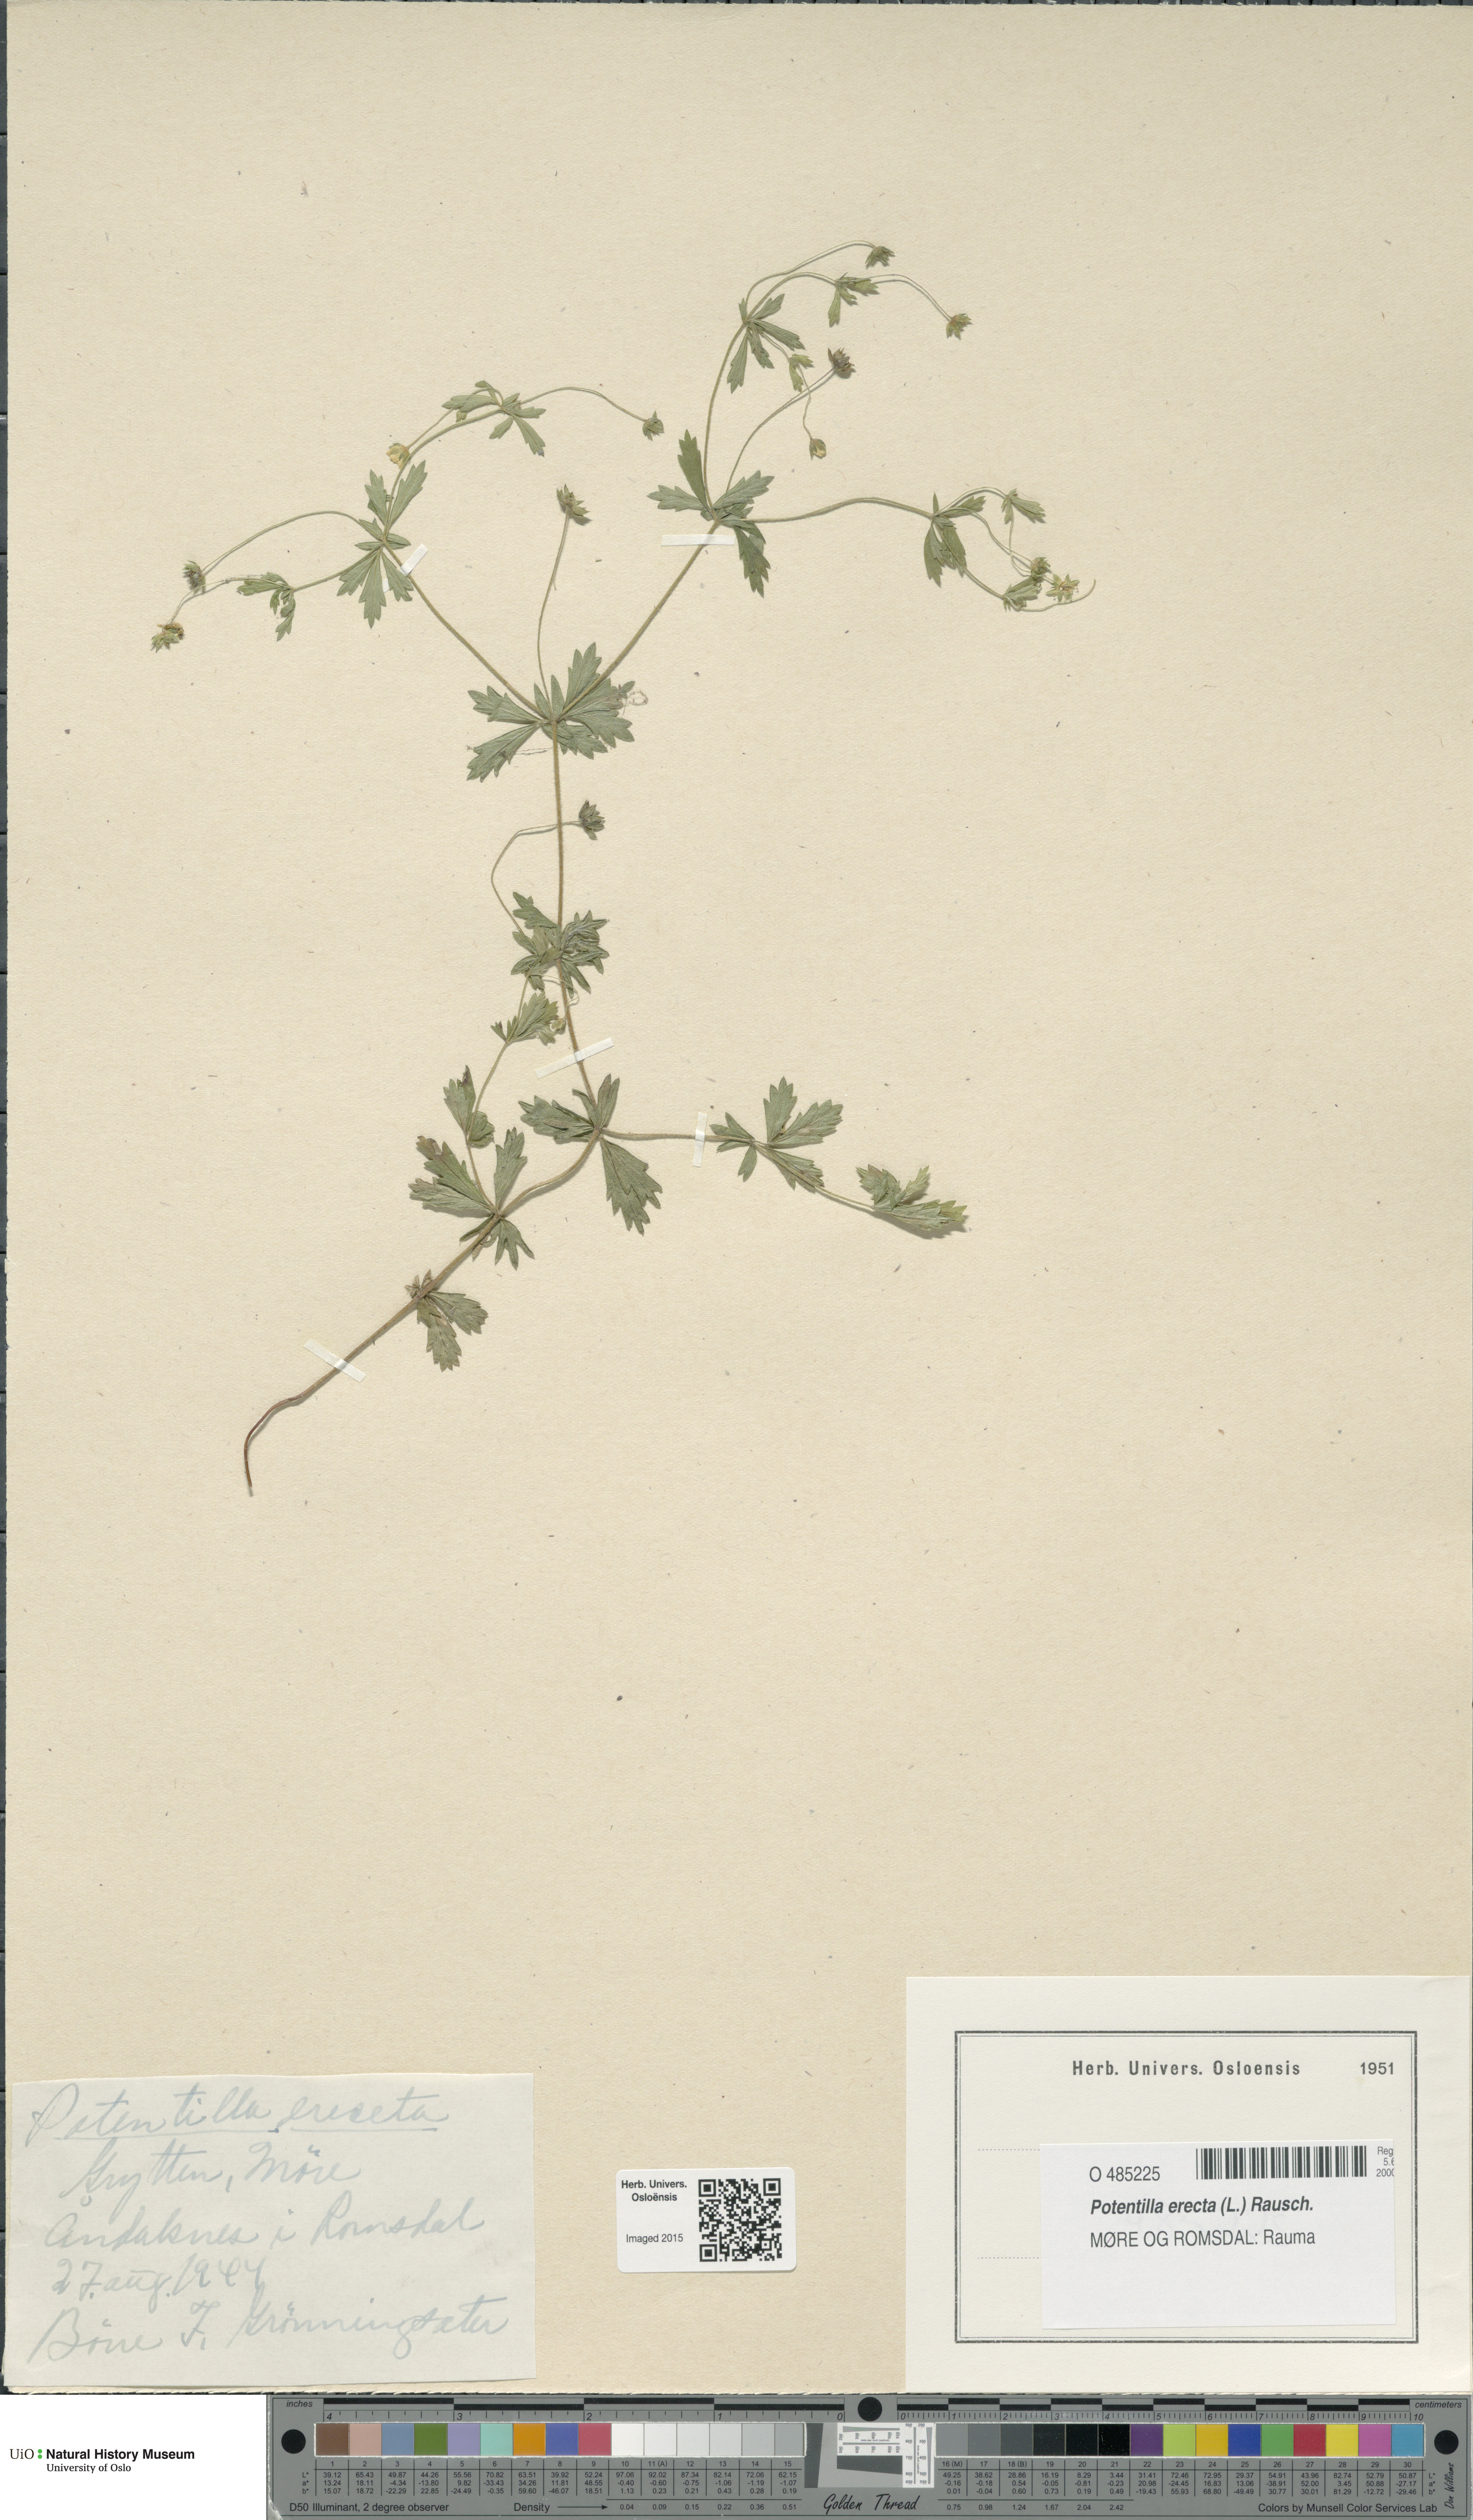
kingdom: Plantae
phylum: Tracheophyta
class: Magnoliopsida
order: Rosales
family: Rosaceae
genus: Potentilla
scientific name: Potentilla erecta
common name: Tormentil
